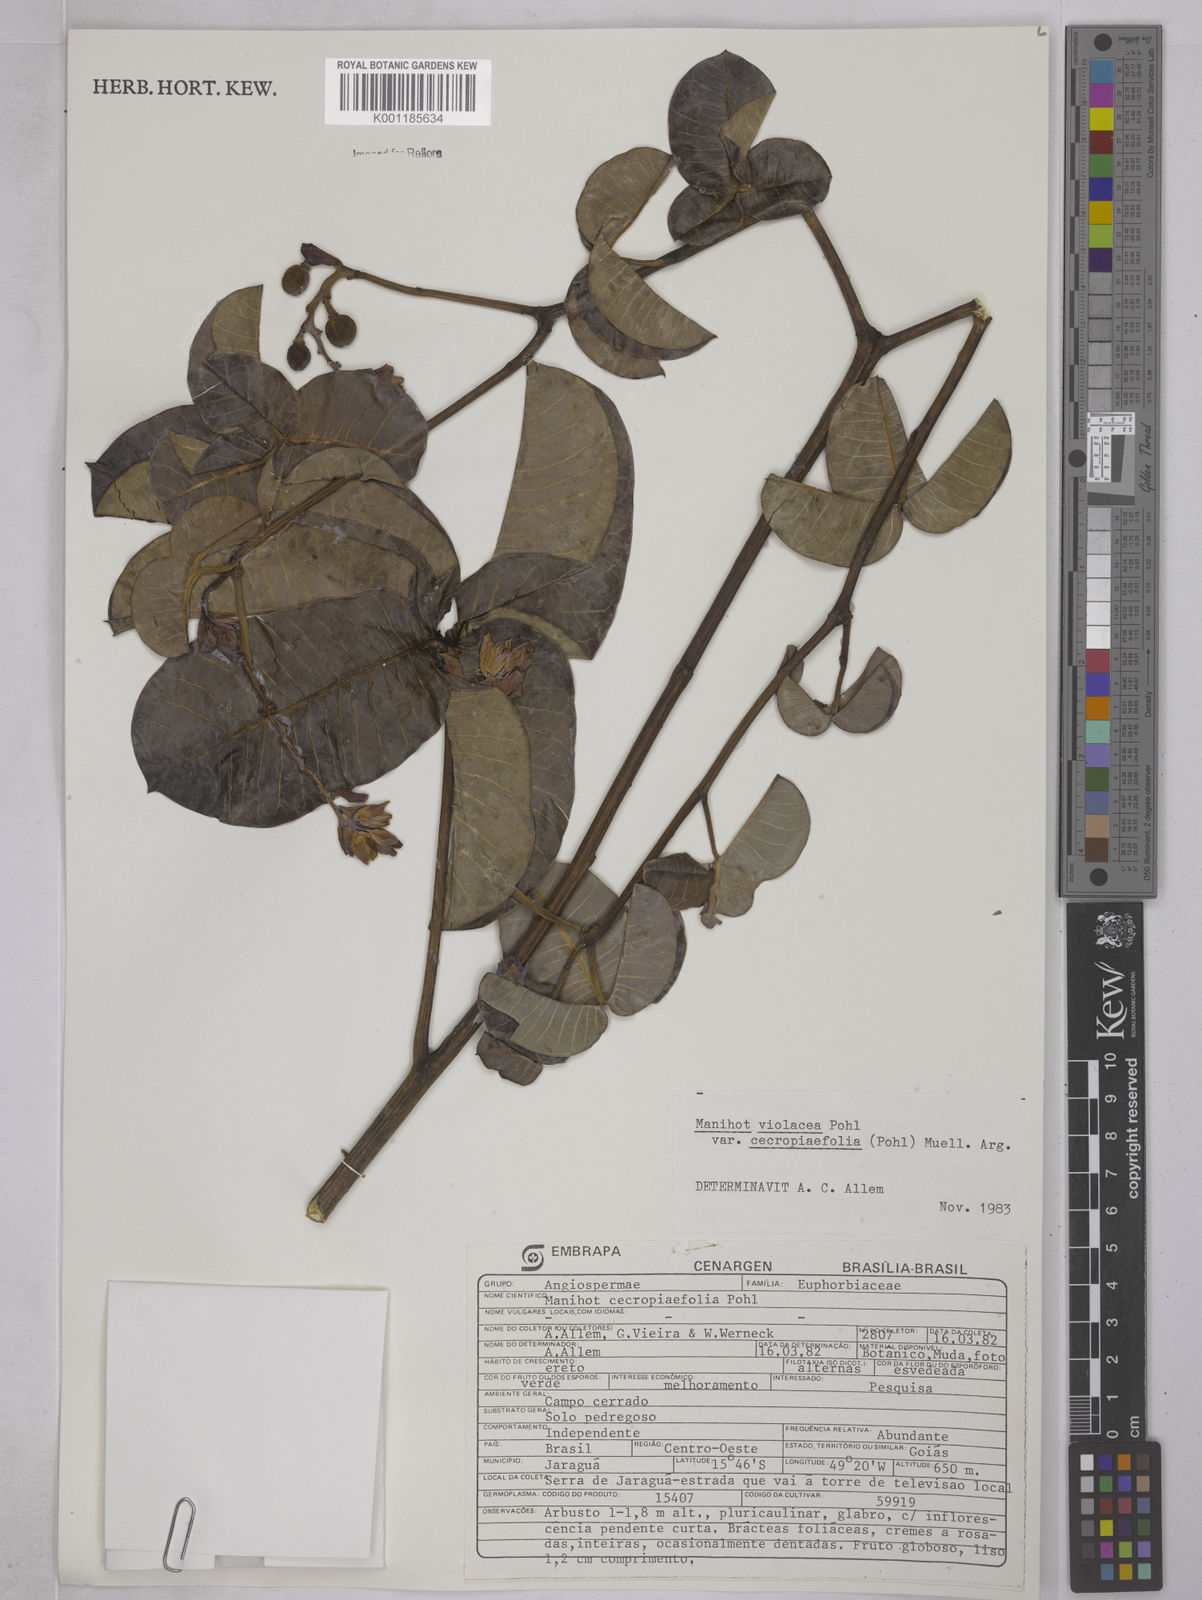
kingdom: Plantae
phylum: Tracheophyta
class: Magnoliopsida
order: Malpighiales
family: Euphorbiaceae
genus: Manihot
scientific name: Manihot cecropiifolia
